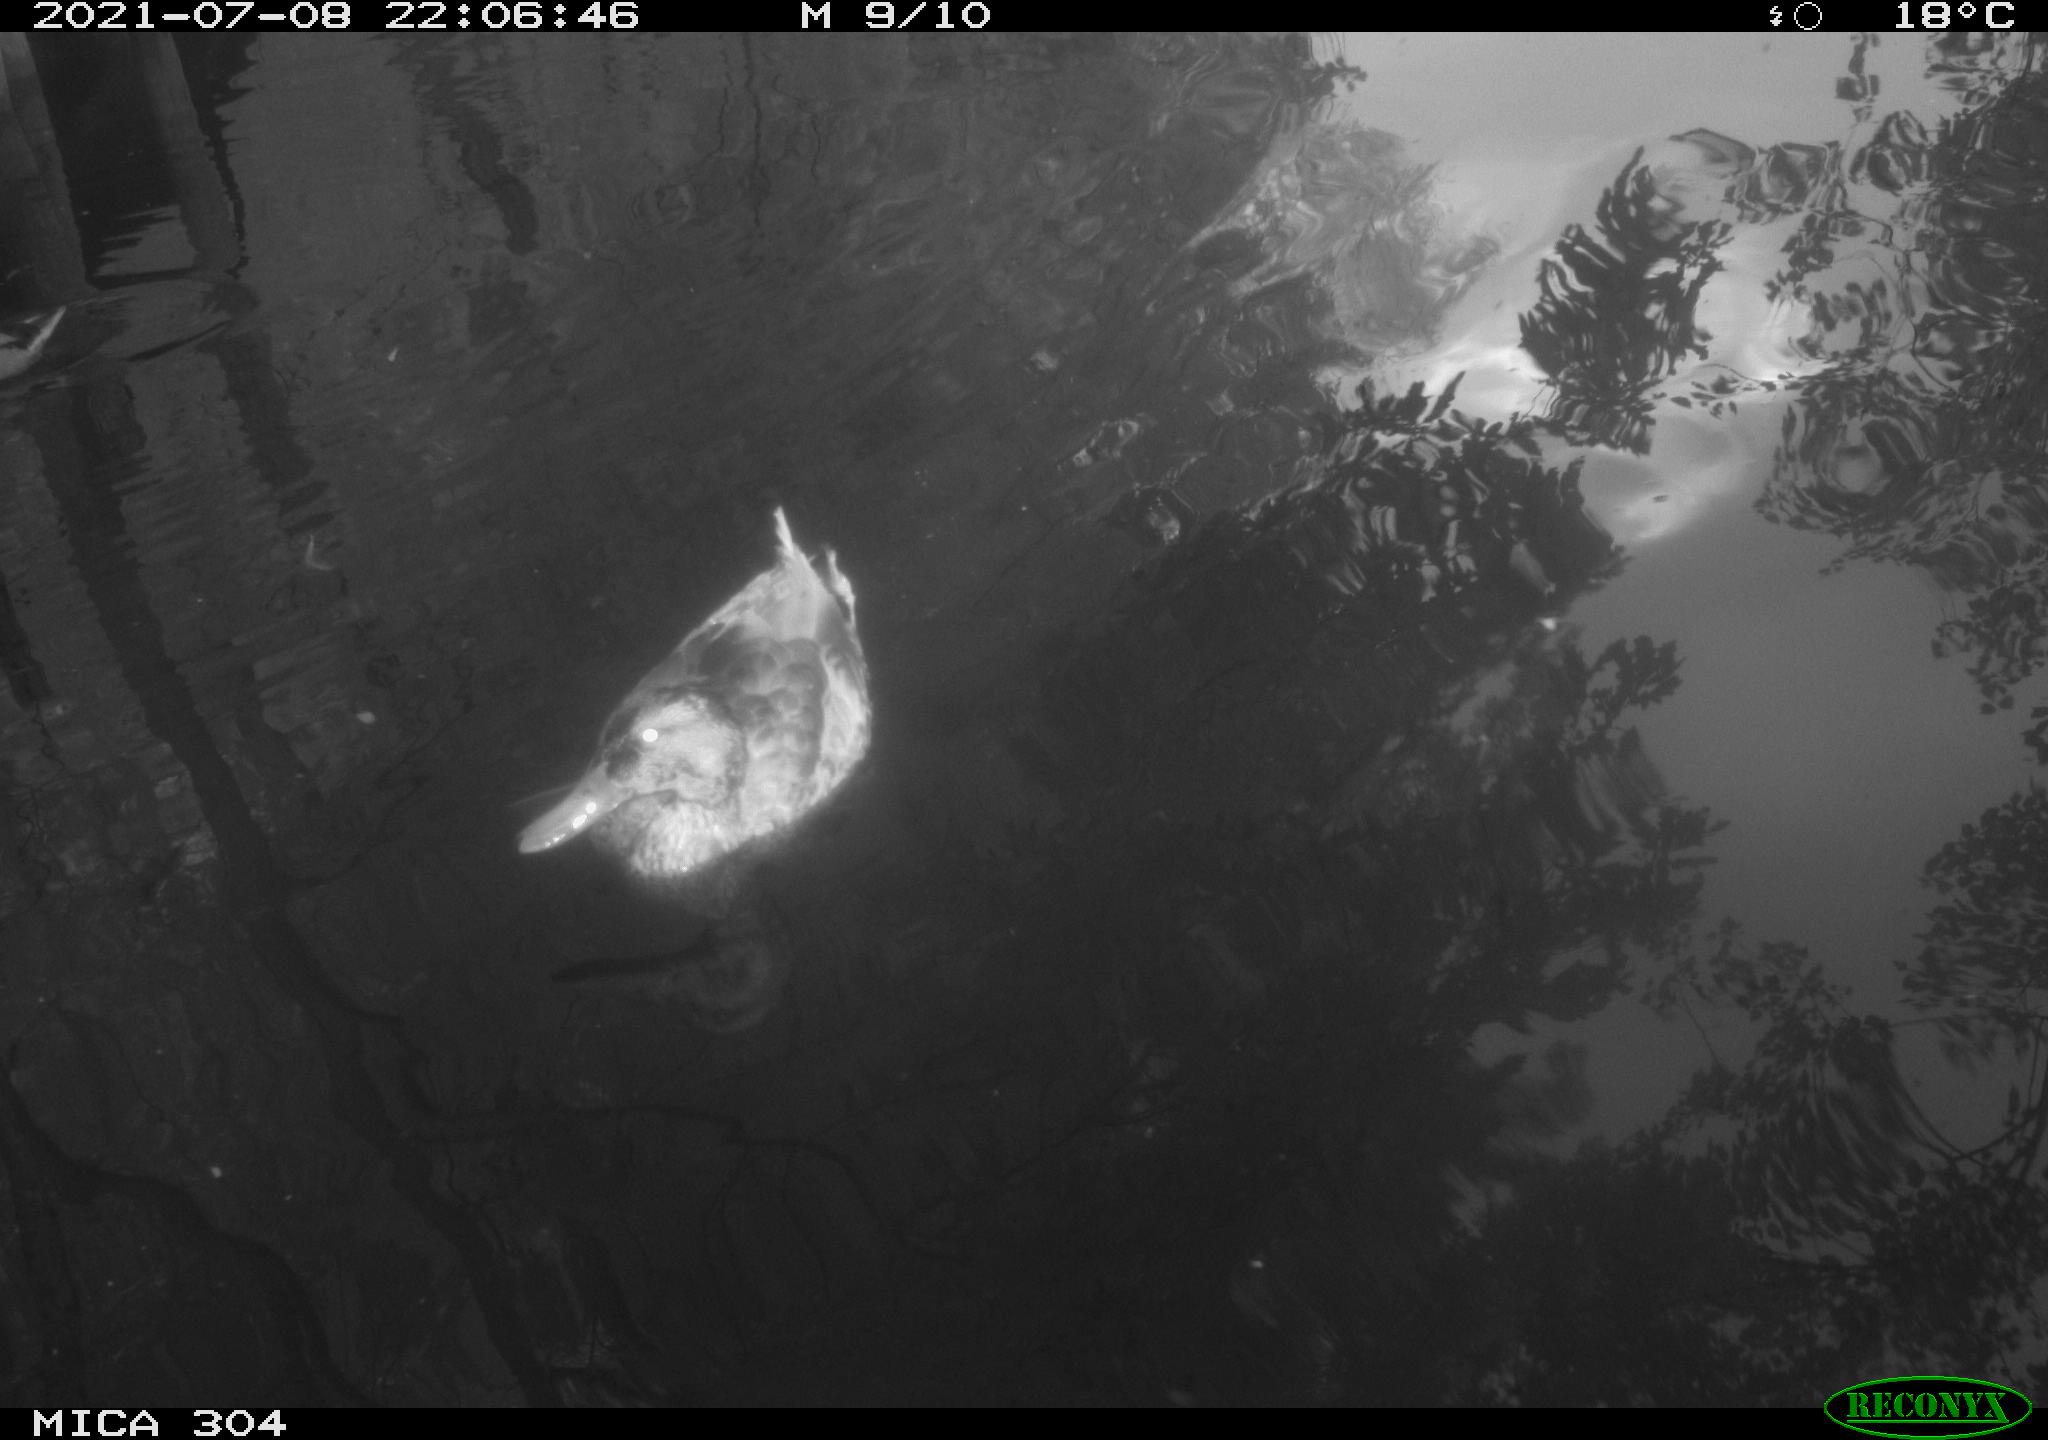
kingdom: Animalia
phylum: Chordata
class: Aves
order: Anseriformes
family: Anatidae
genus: Mareca
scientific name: Mareca strepera
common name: Gadwall
